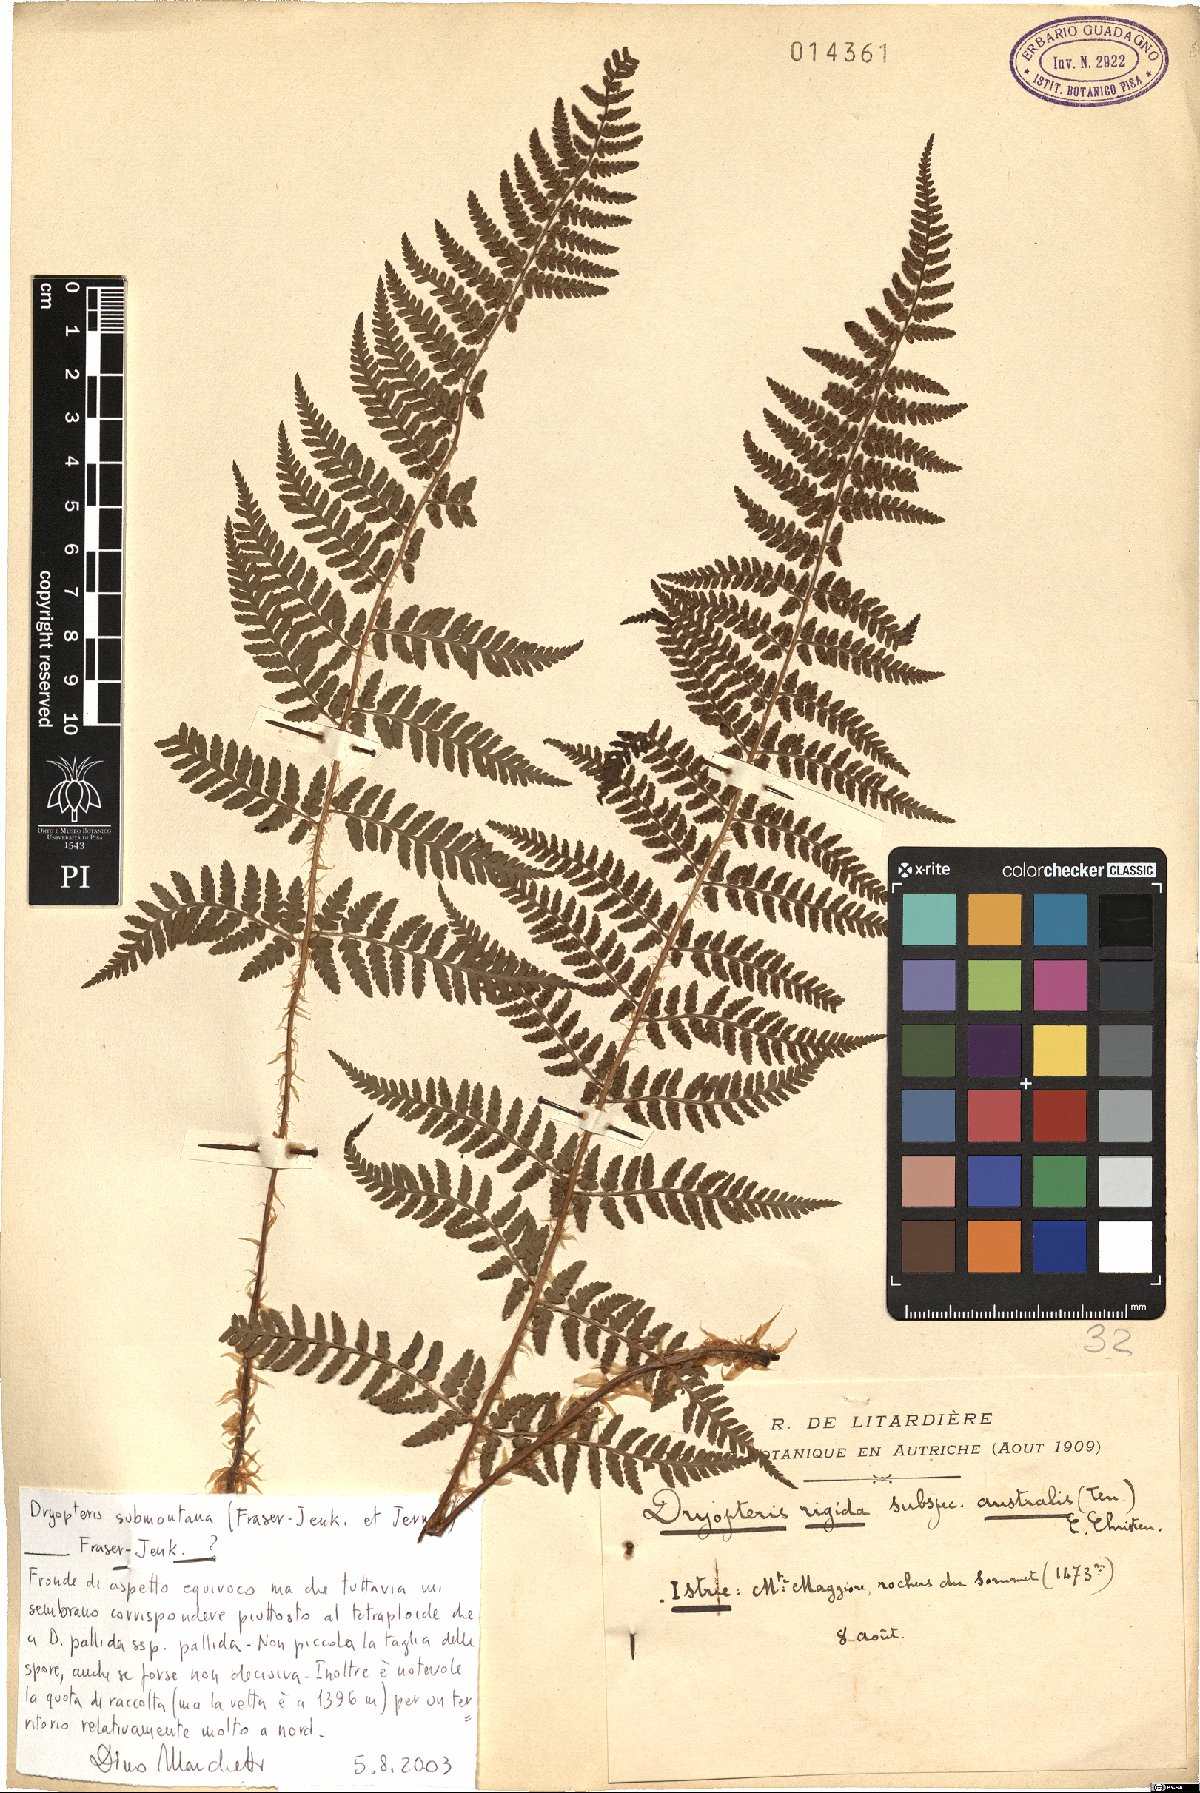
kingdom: Plantae
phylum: Tracheophyta
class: Polypodiopsida
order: Polypodiales
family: Dryopteridaceae
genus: Dryopteris
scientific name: Dryopteris mindshelkensis
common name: Limestone wood fern
